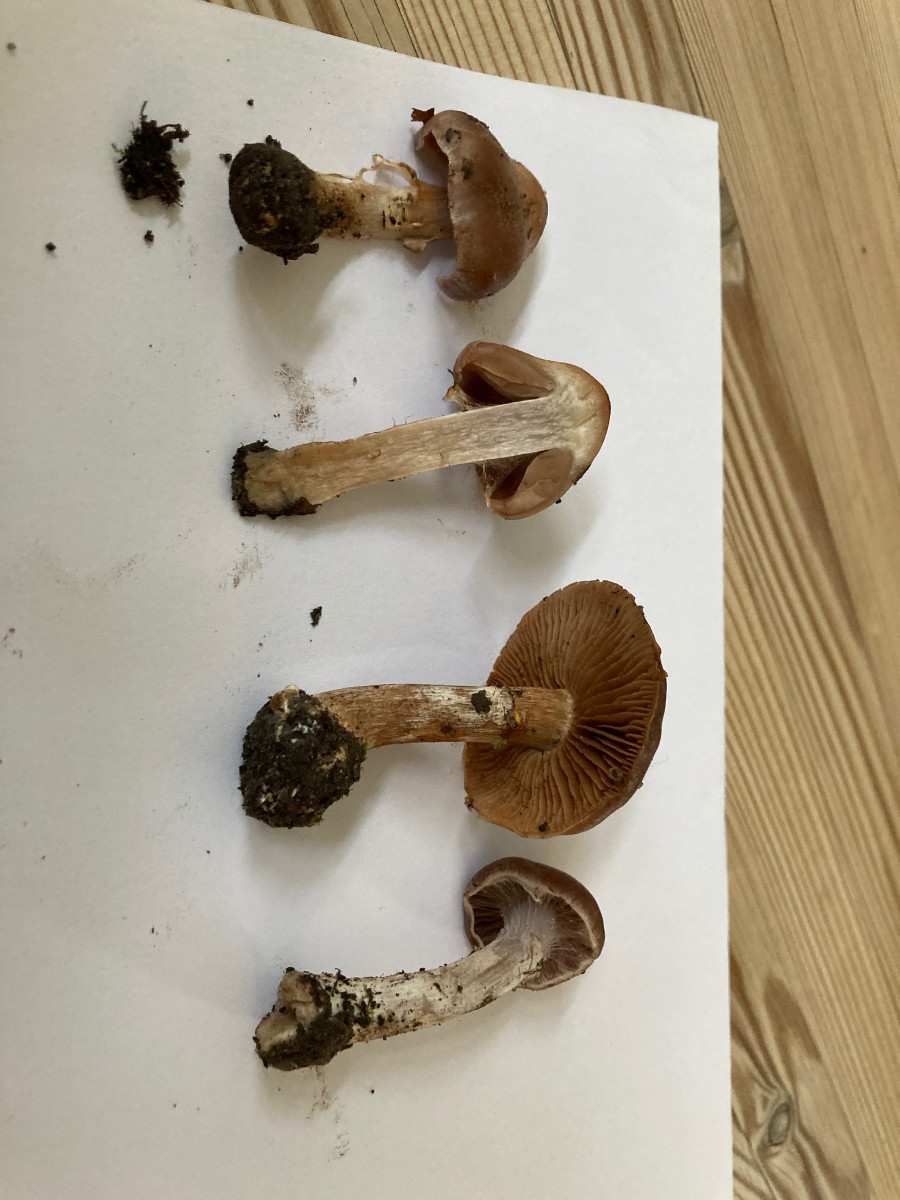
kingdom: Fungi
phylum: Basidiomycota
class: Agaricomycetes
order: Agaricales
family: Cortinariaceae
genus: Cortinarius
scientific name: Cortinarius saturninus
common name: brunviolet slørhat
